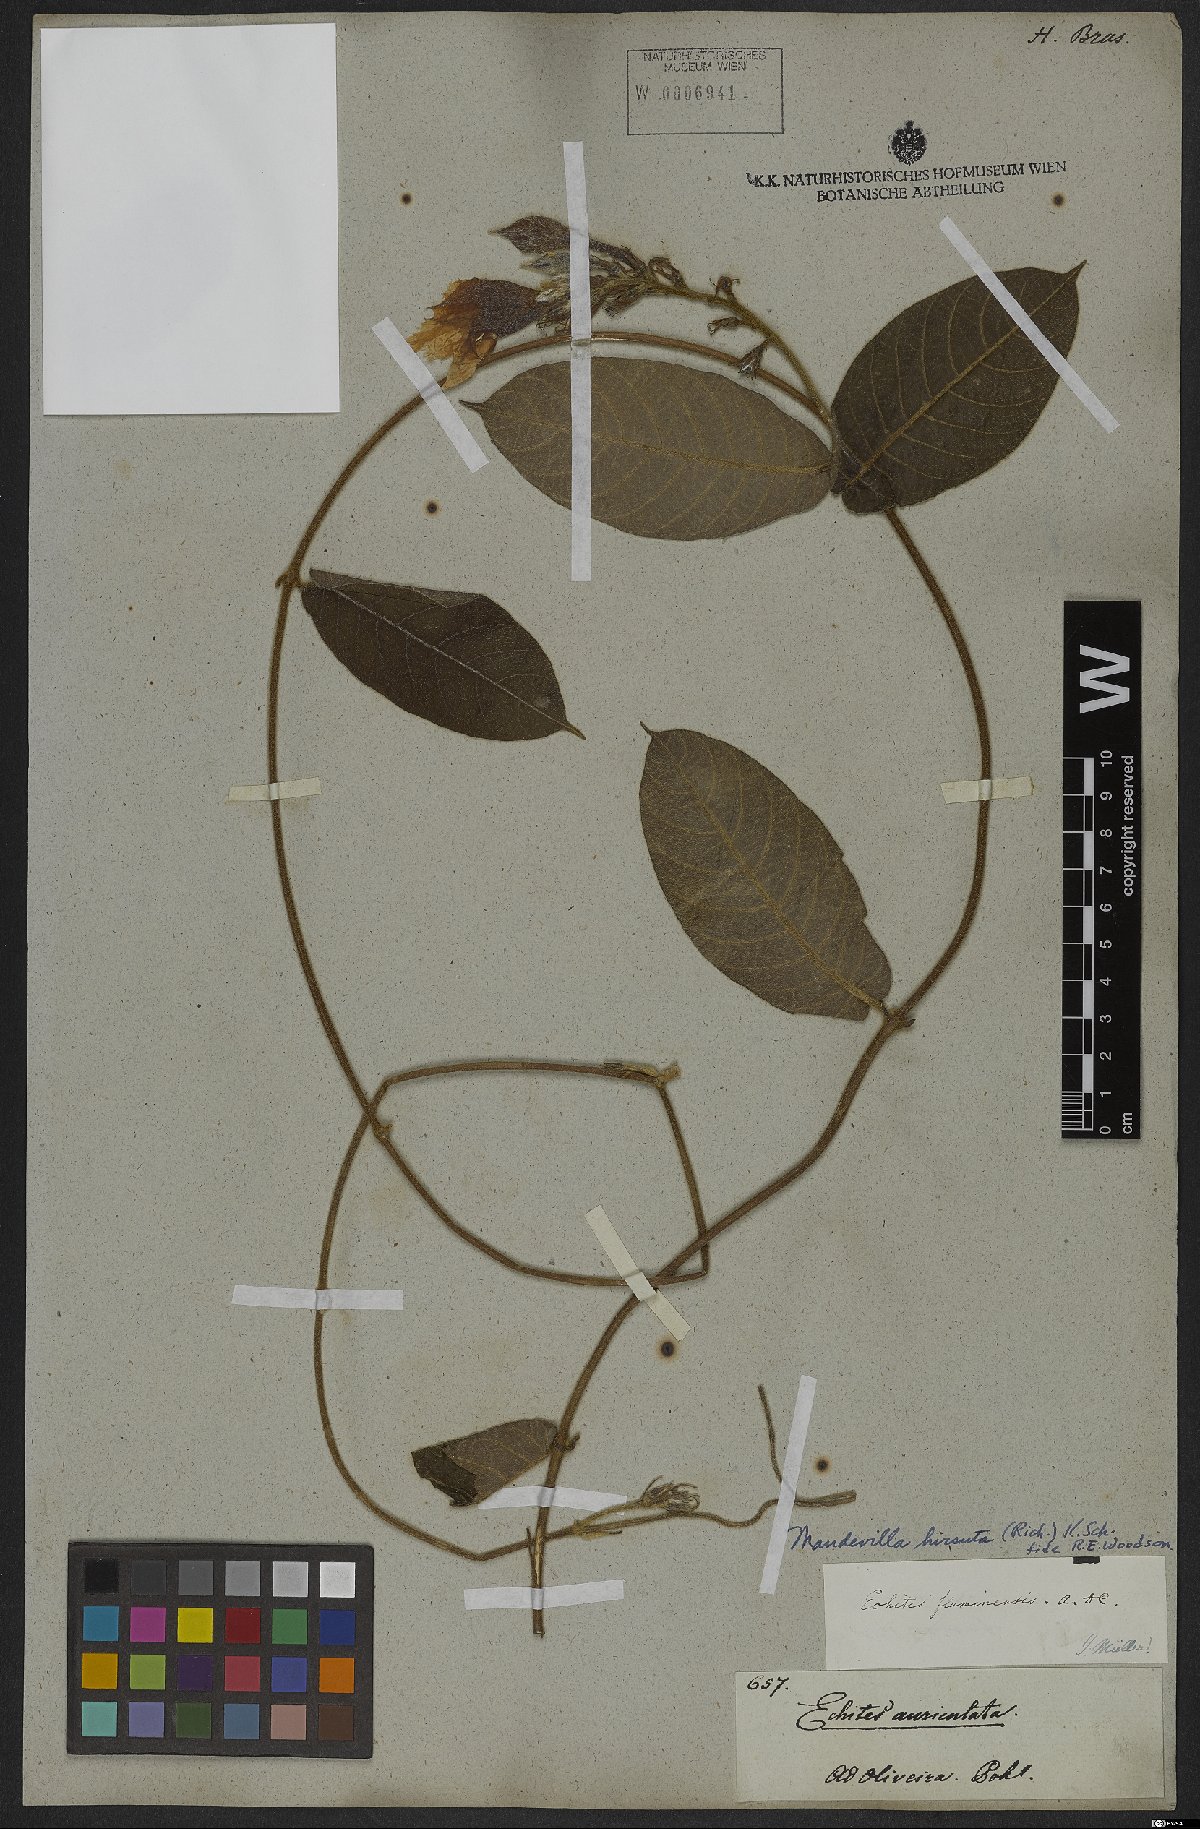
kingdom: Plantae
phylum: Tracheophyta
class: Magnoliopsida
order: Gentianales
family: Apocynaceae
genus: Mandevilla
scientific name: Mandevilla hirsuta
